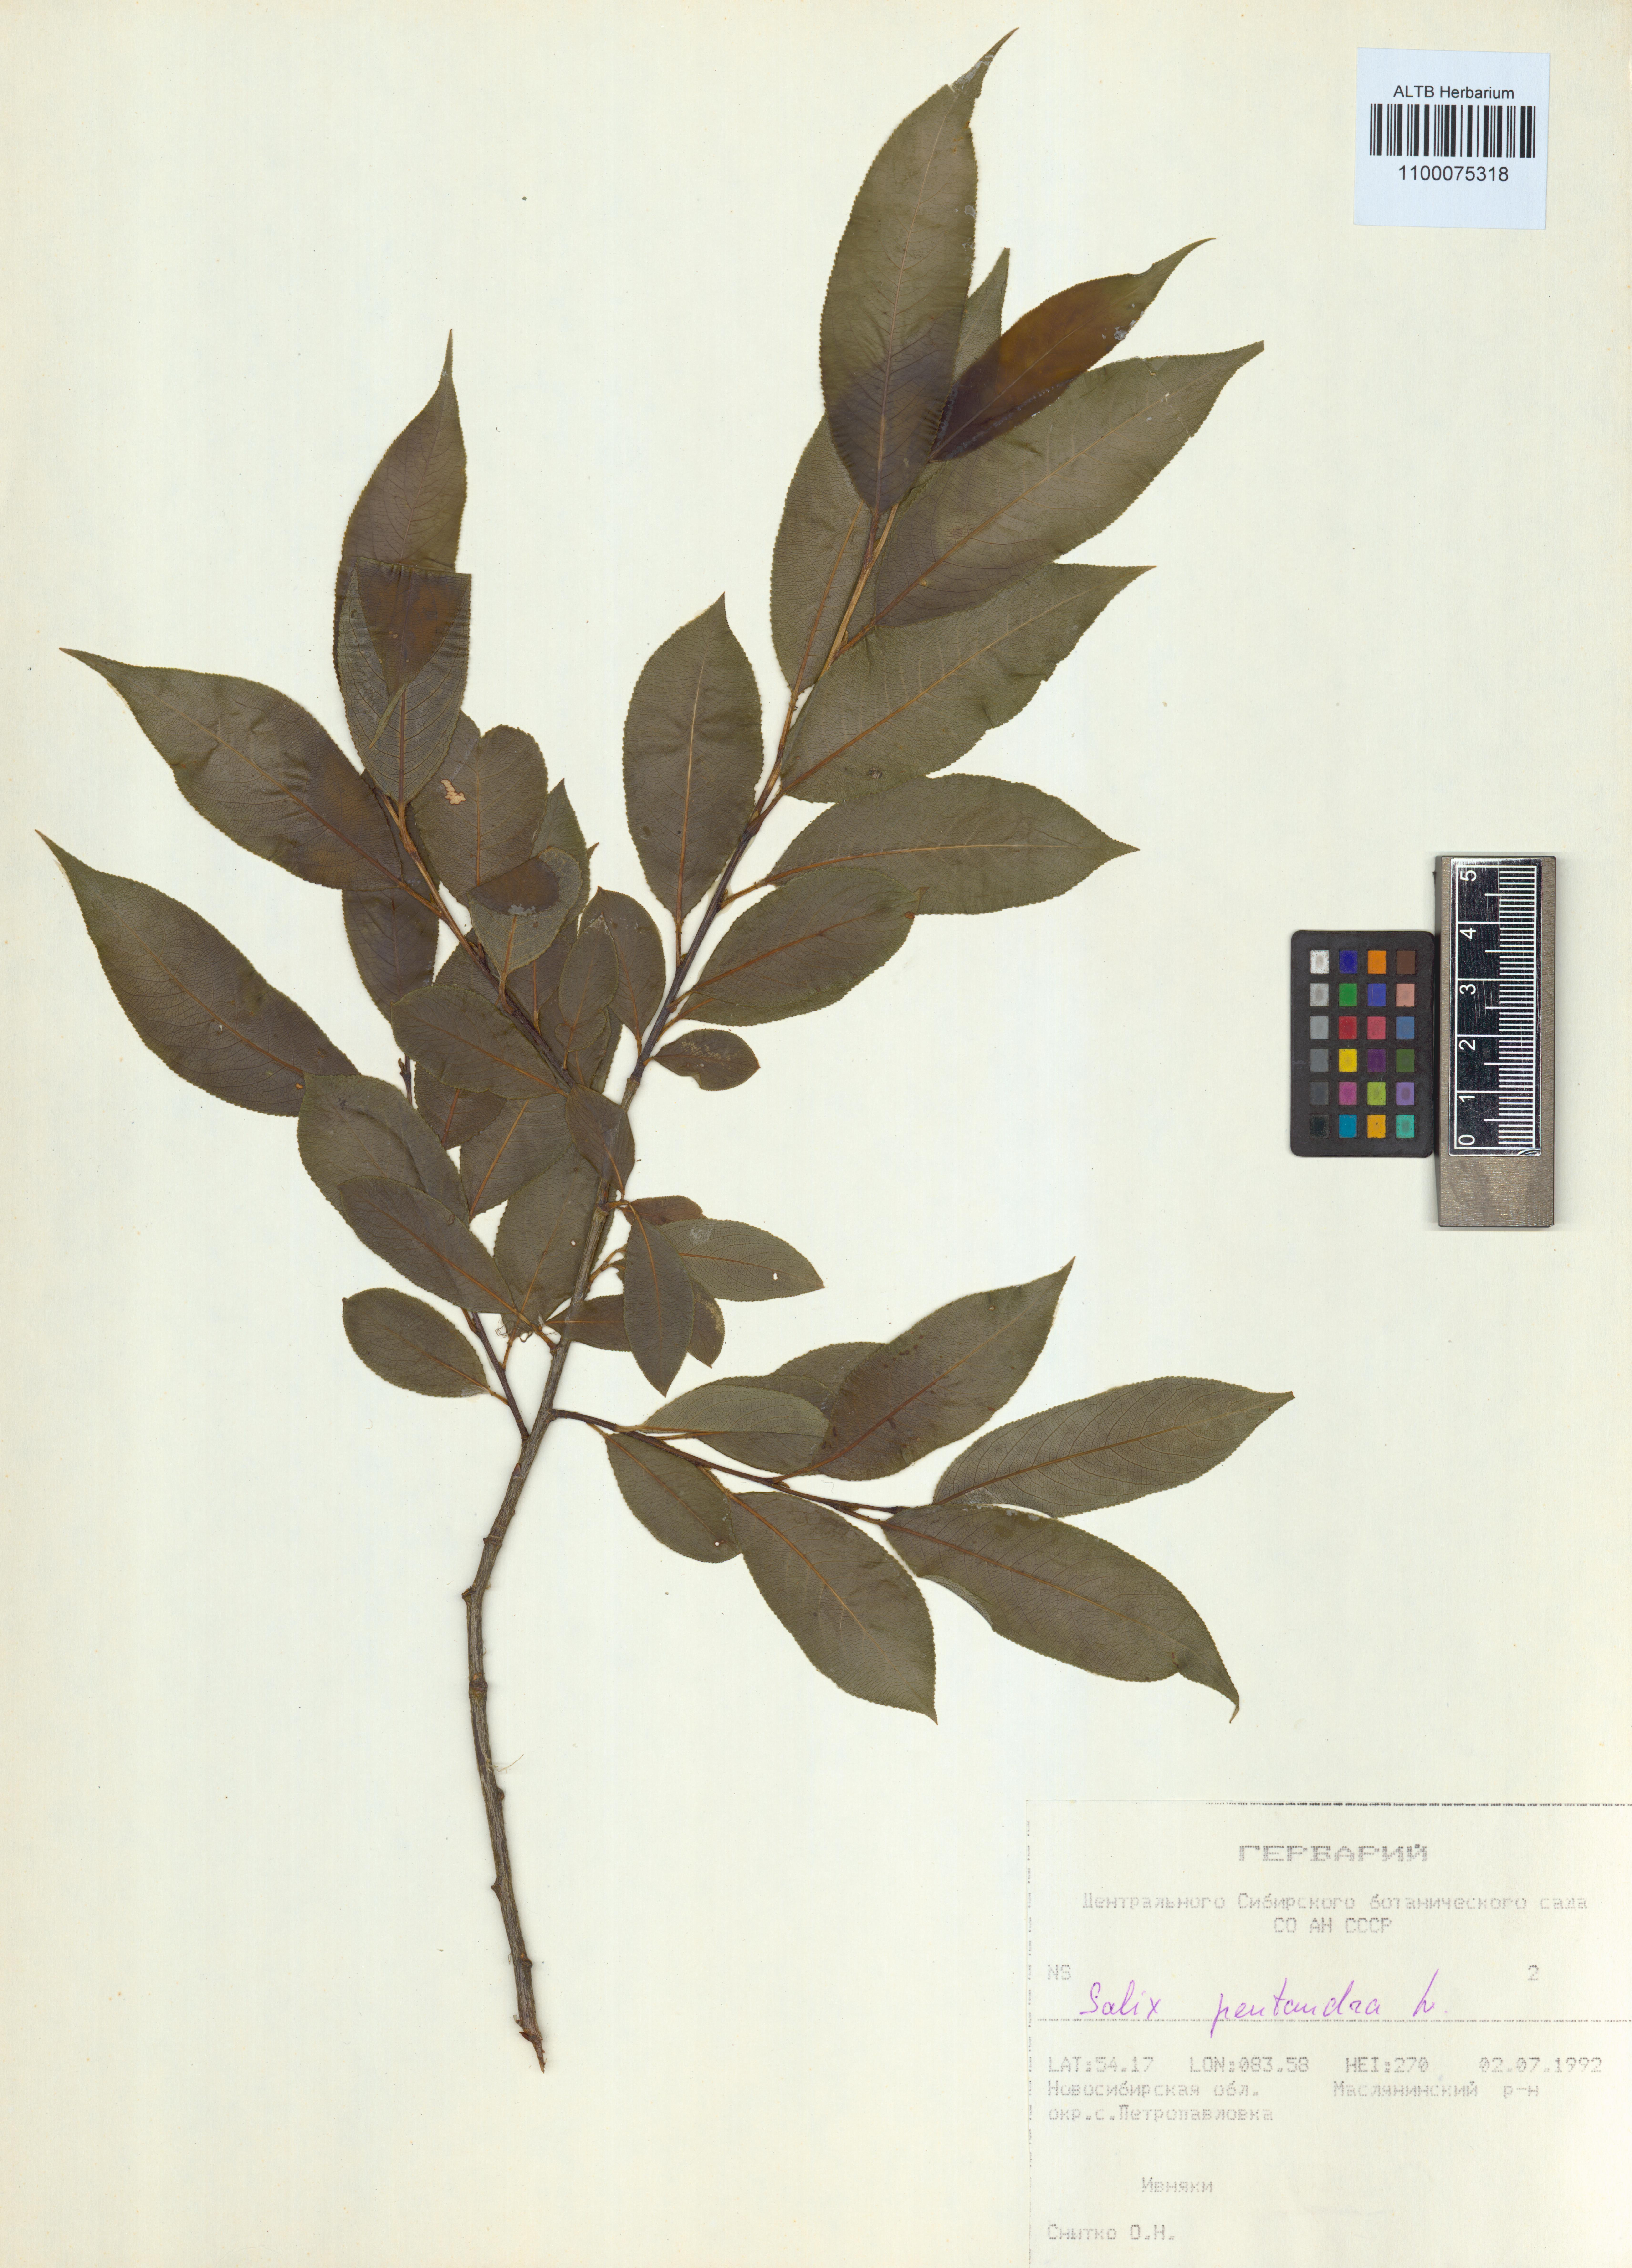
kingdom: Plantae
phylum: Tracheophyta
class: Magnoliopsida
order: Malpighiales
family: Salicaceae
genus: Salix
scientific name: Salix pentandra
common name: Bay willow
